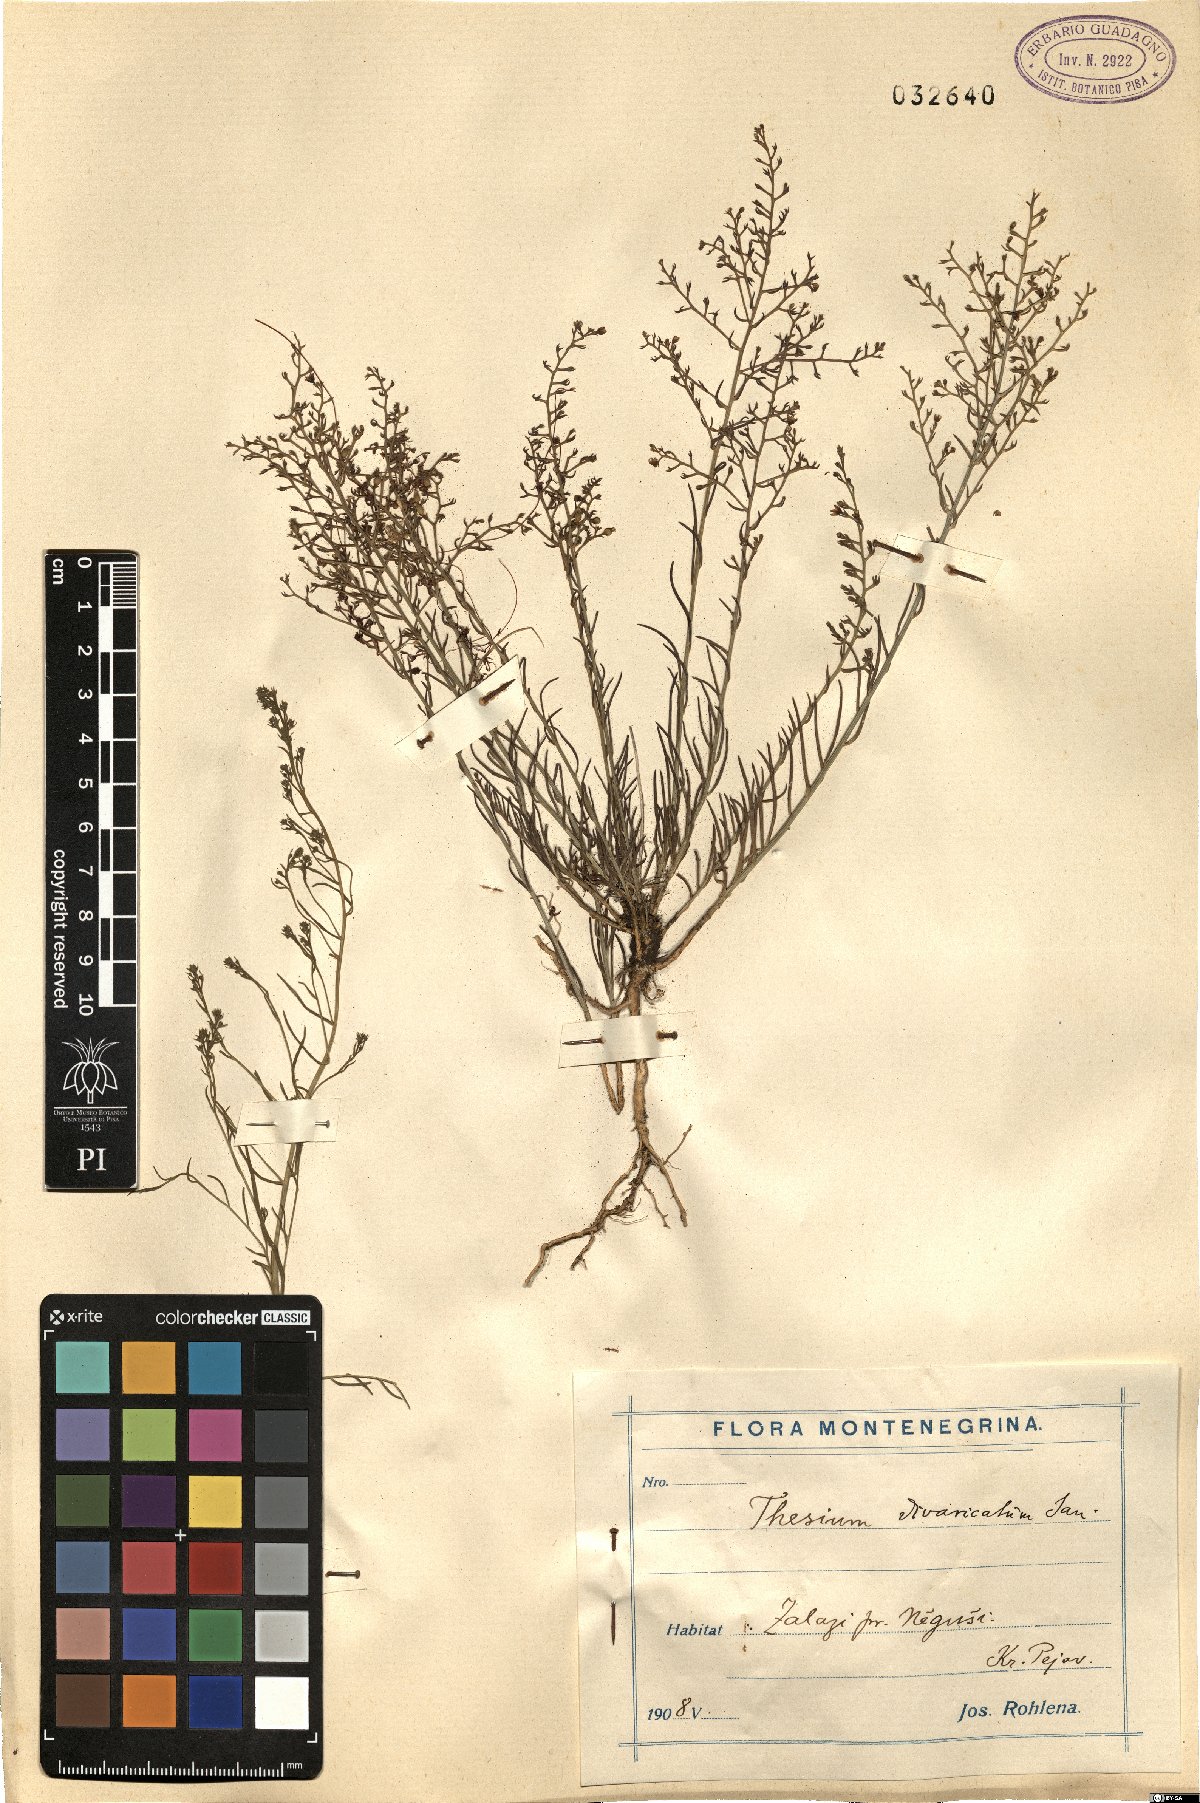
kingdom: Plantae
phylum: Tracheophyta
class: Magnoliopsida
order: Santalales
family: Thesiaceae
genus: Thesium
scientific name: Thesium divaricatum
